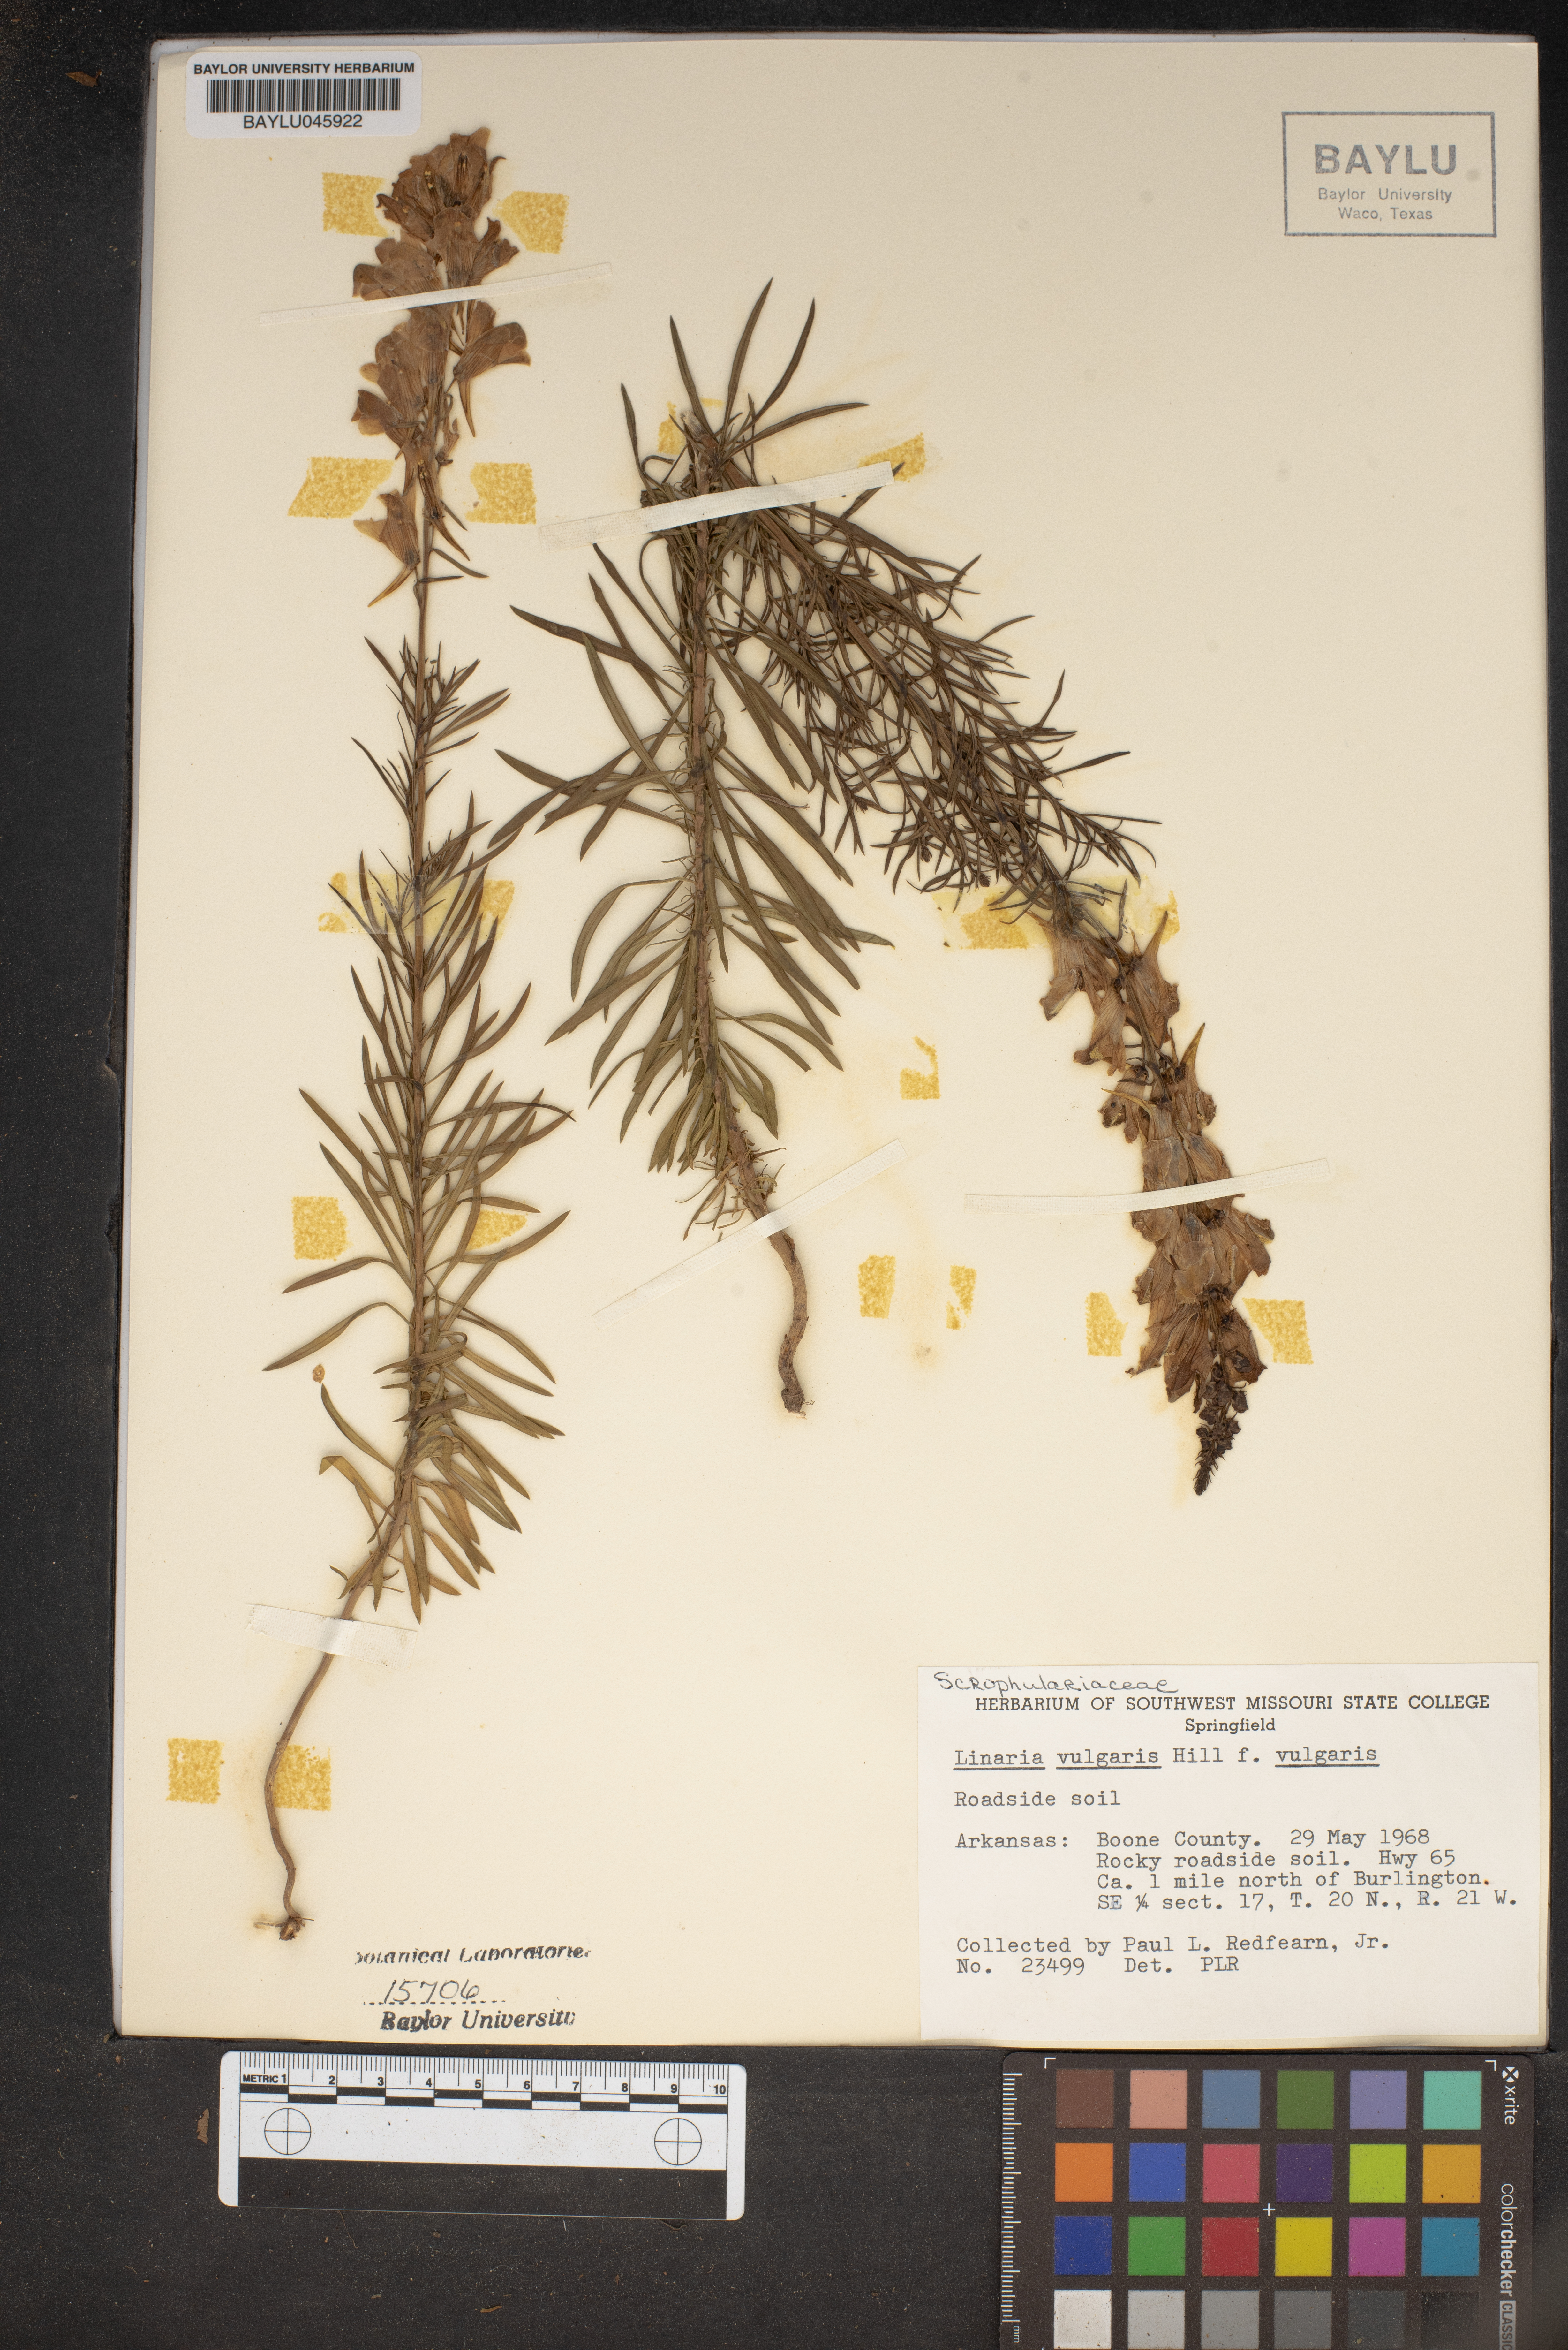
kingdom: Plantae
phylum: Tracheophyta
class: Magnoliopsida
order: Lamiales
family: Plantaginaceae
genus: Linaria
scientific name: Linaria vulgaris
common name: Butter and eggs
